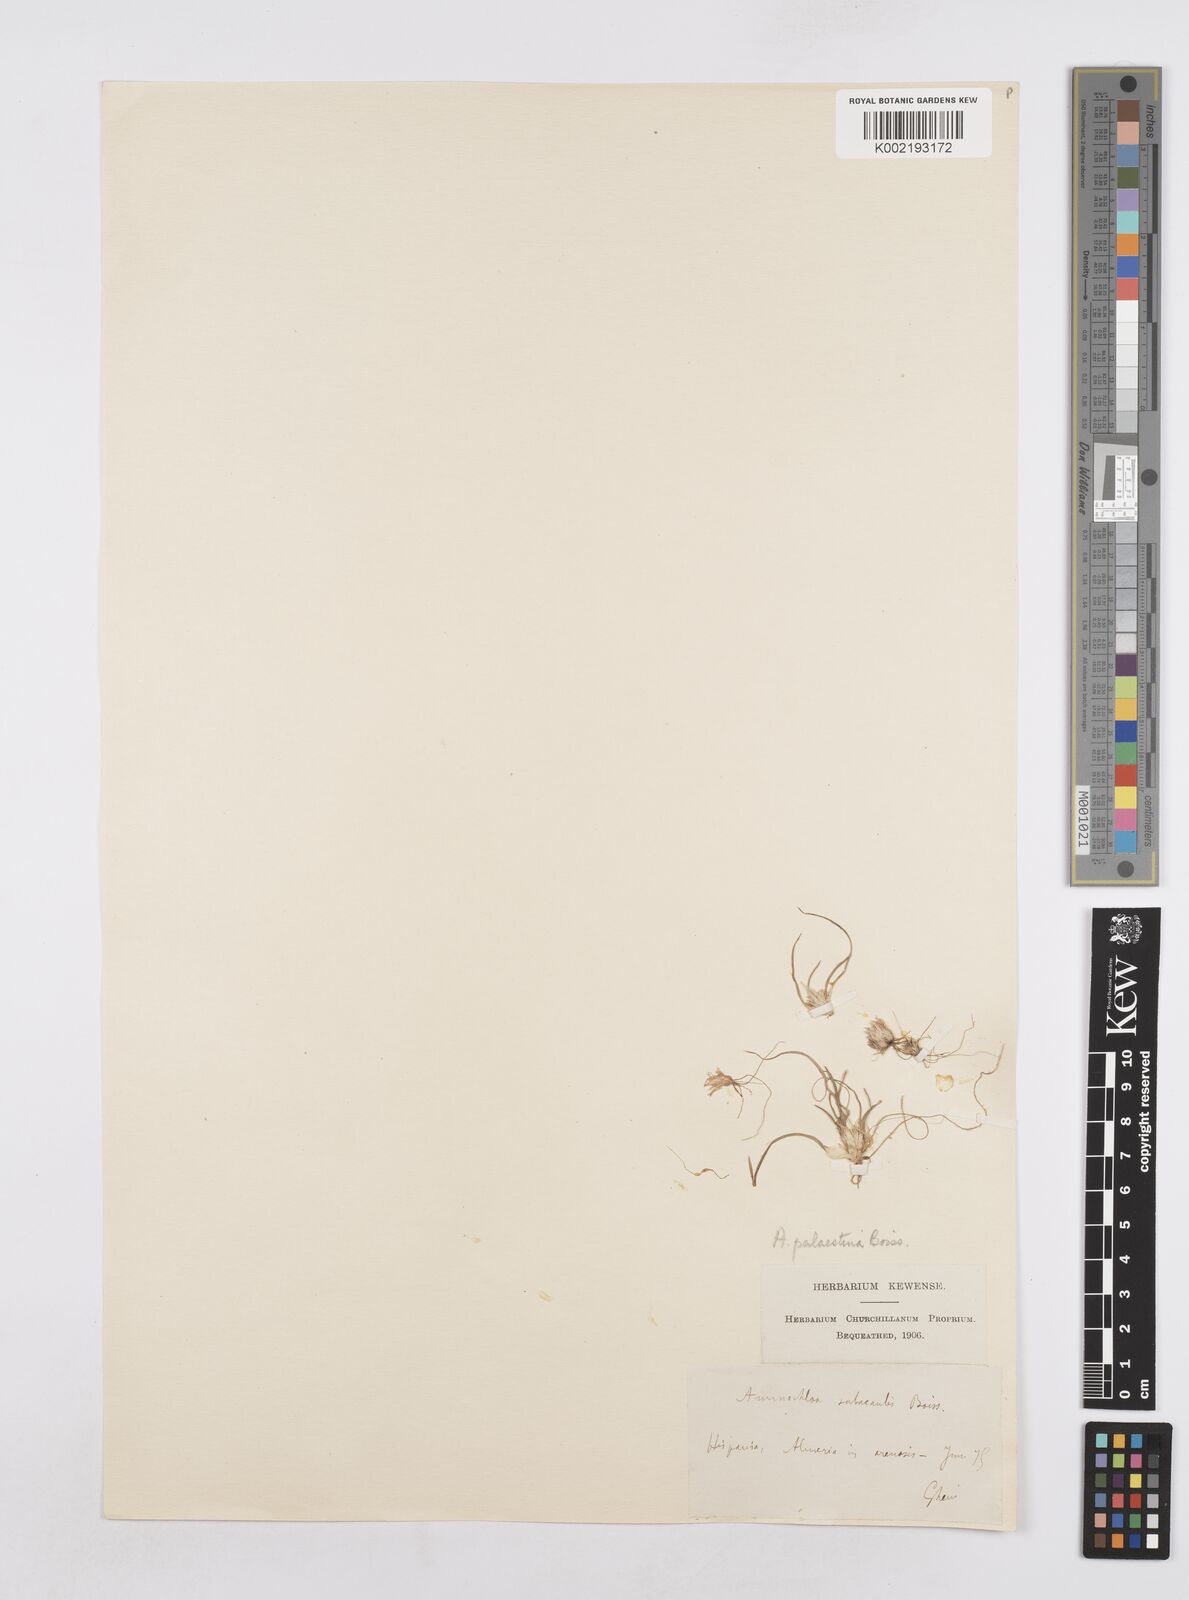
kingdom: Plantae
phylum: Tracheophyta
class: Liliopsida
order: Poales
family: Poaceae
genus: Ammochloa
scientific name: Ammochloa palaestina
